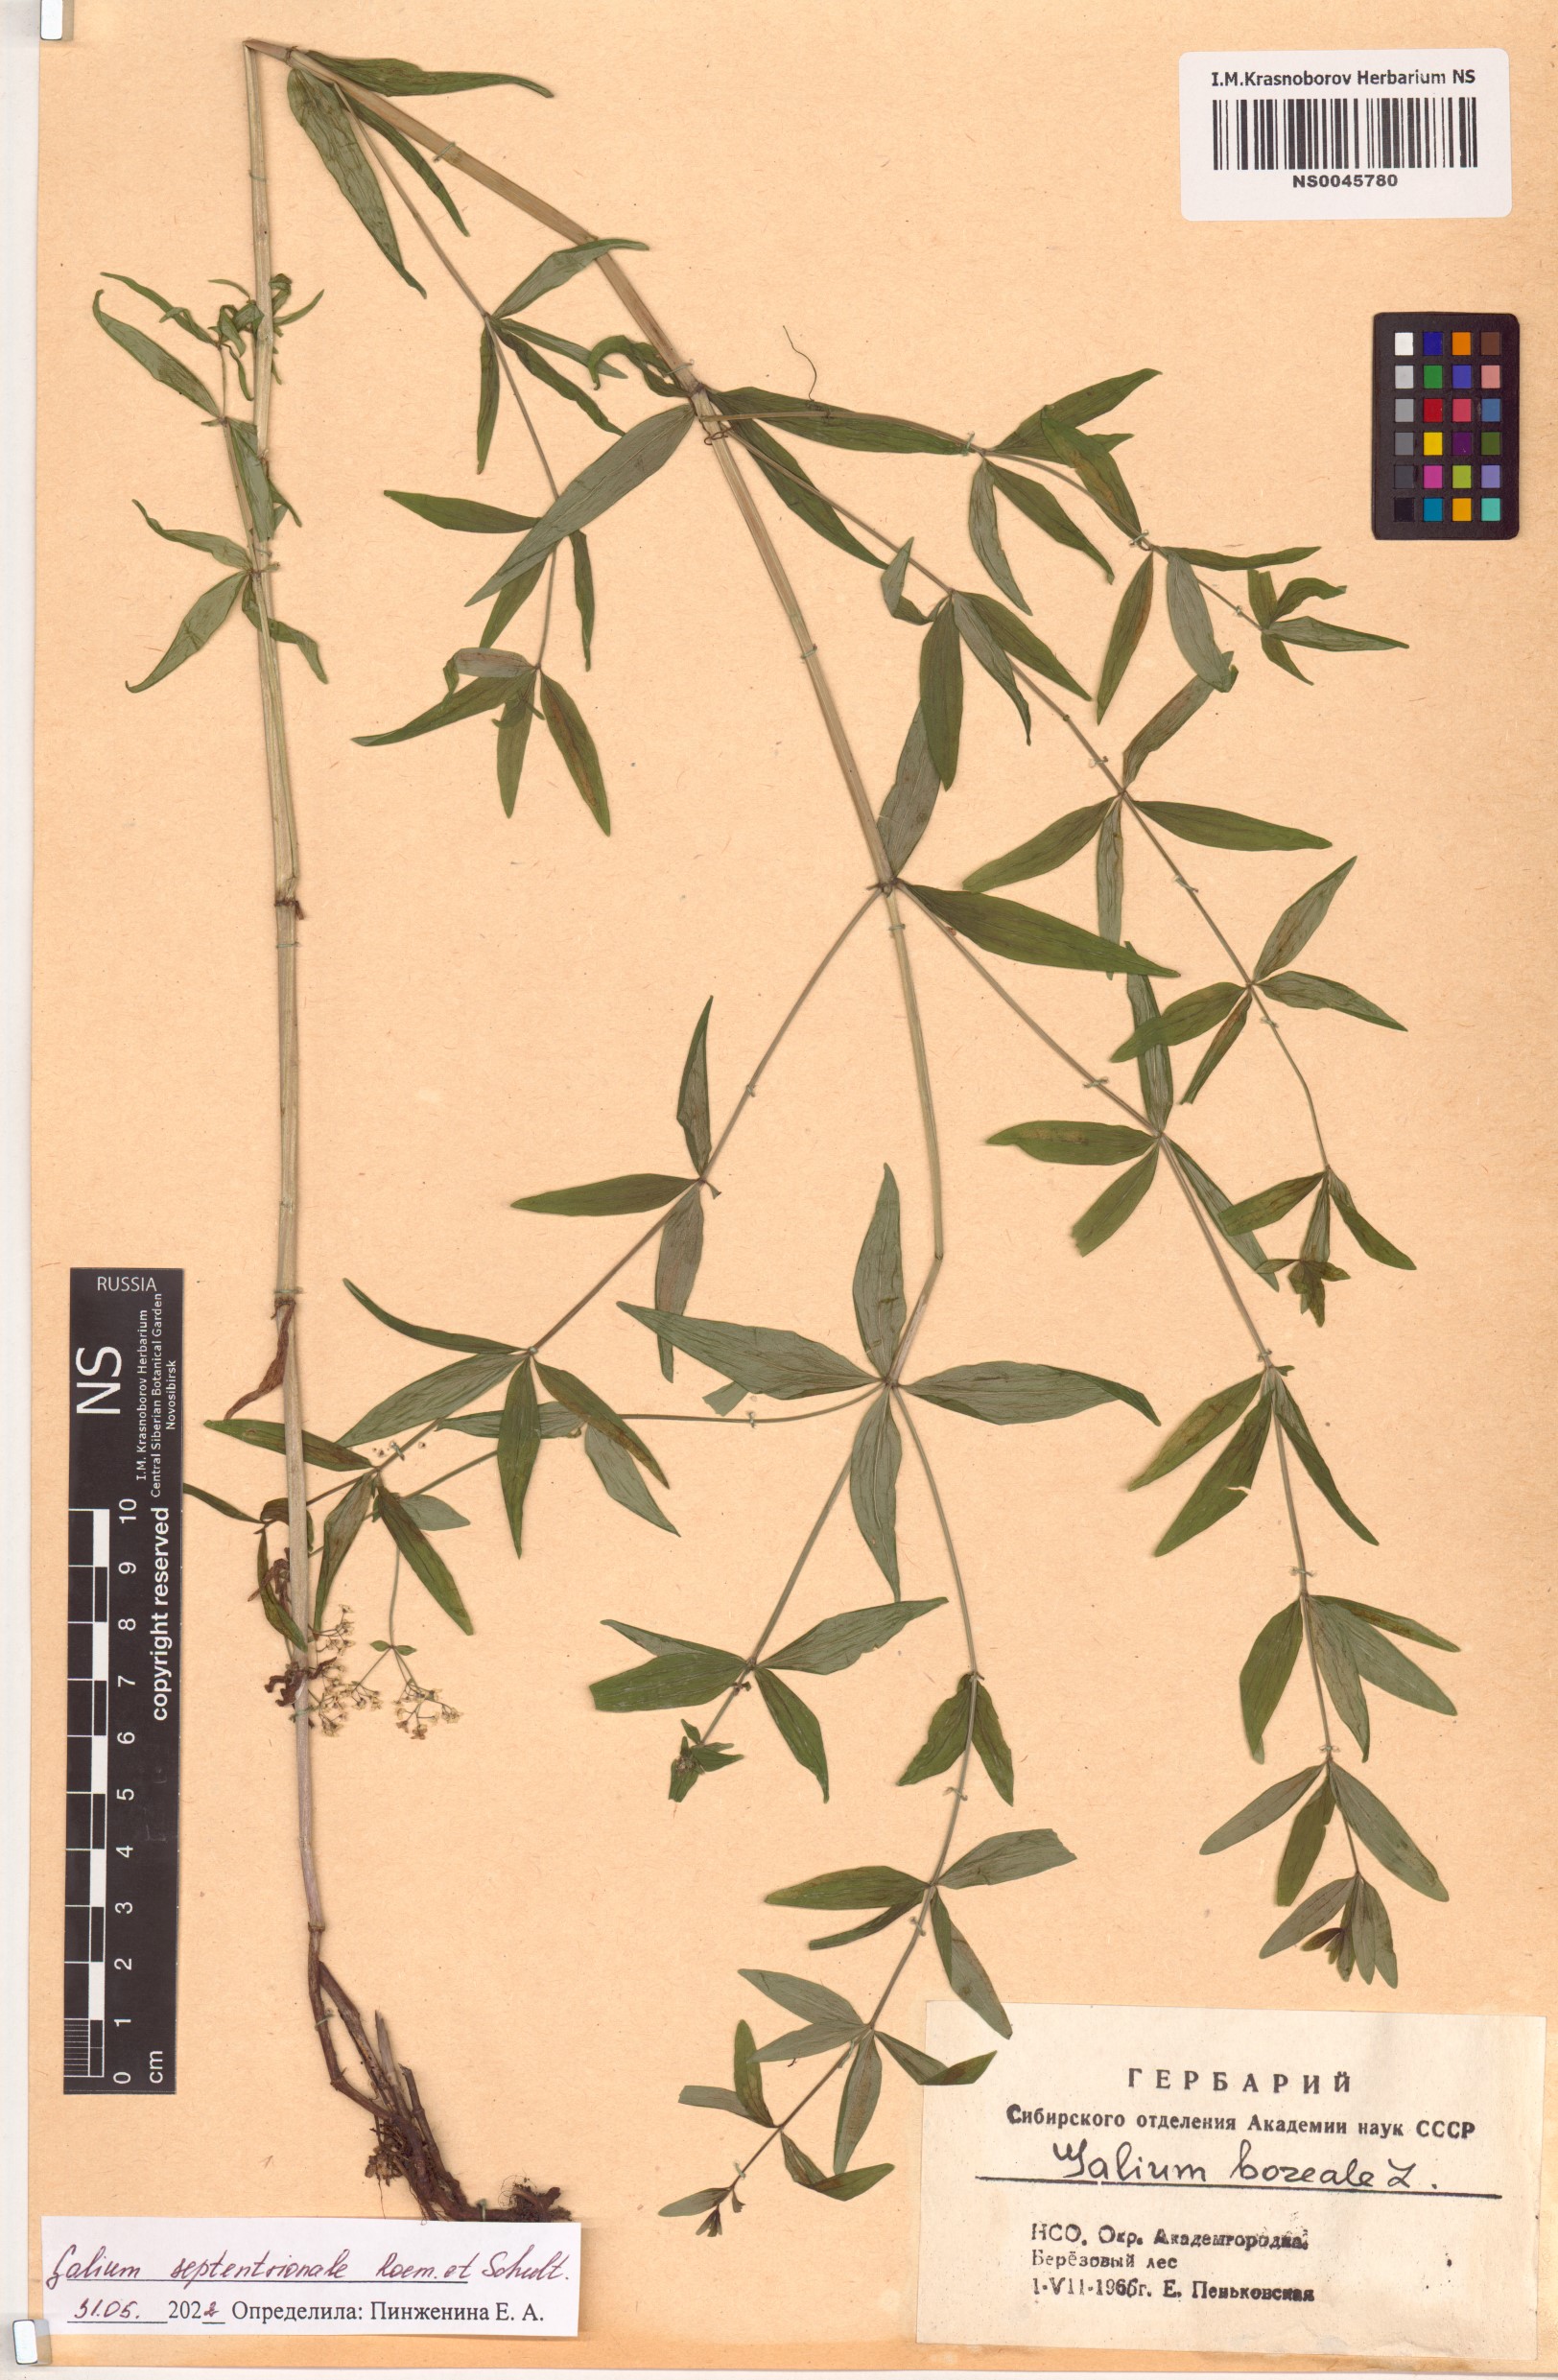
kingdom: Plantae
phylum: Tracheophyta
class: Magnoliopsida
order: Gentianales
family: Rubiaceae
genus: Galium
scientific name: Galium boreale
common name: Northern bedstraw
